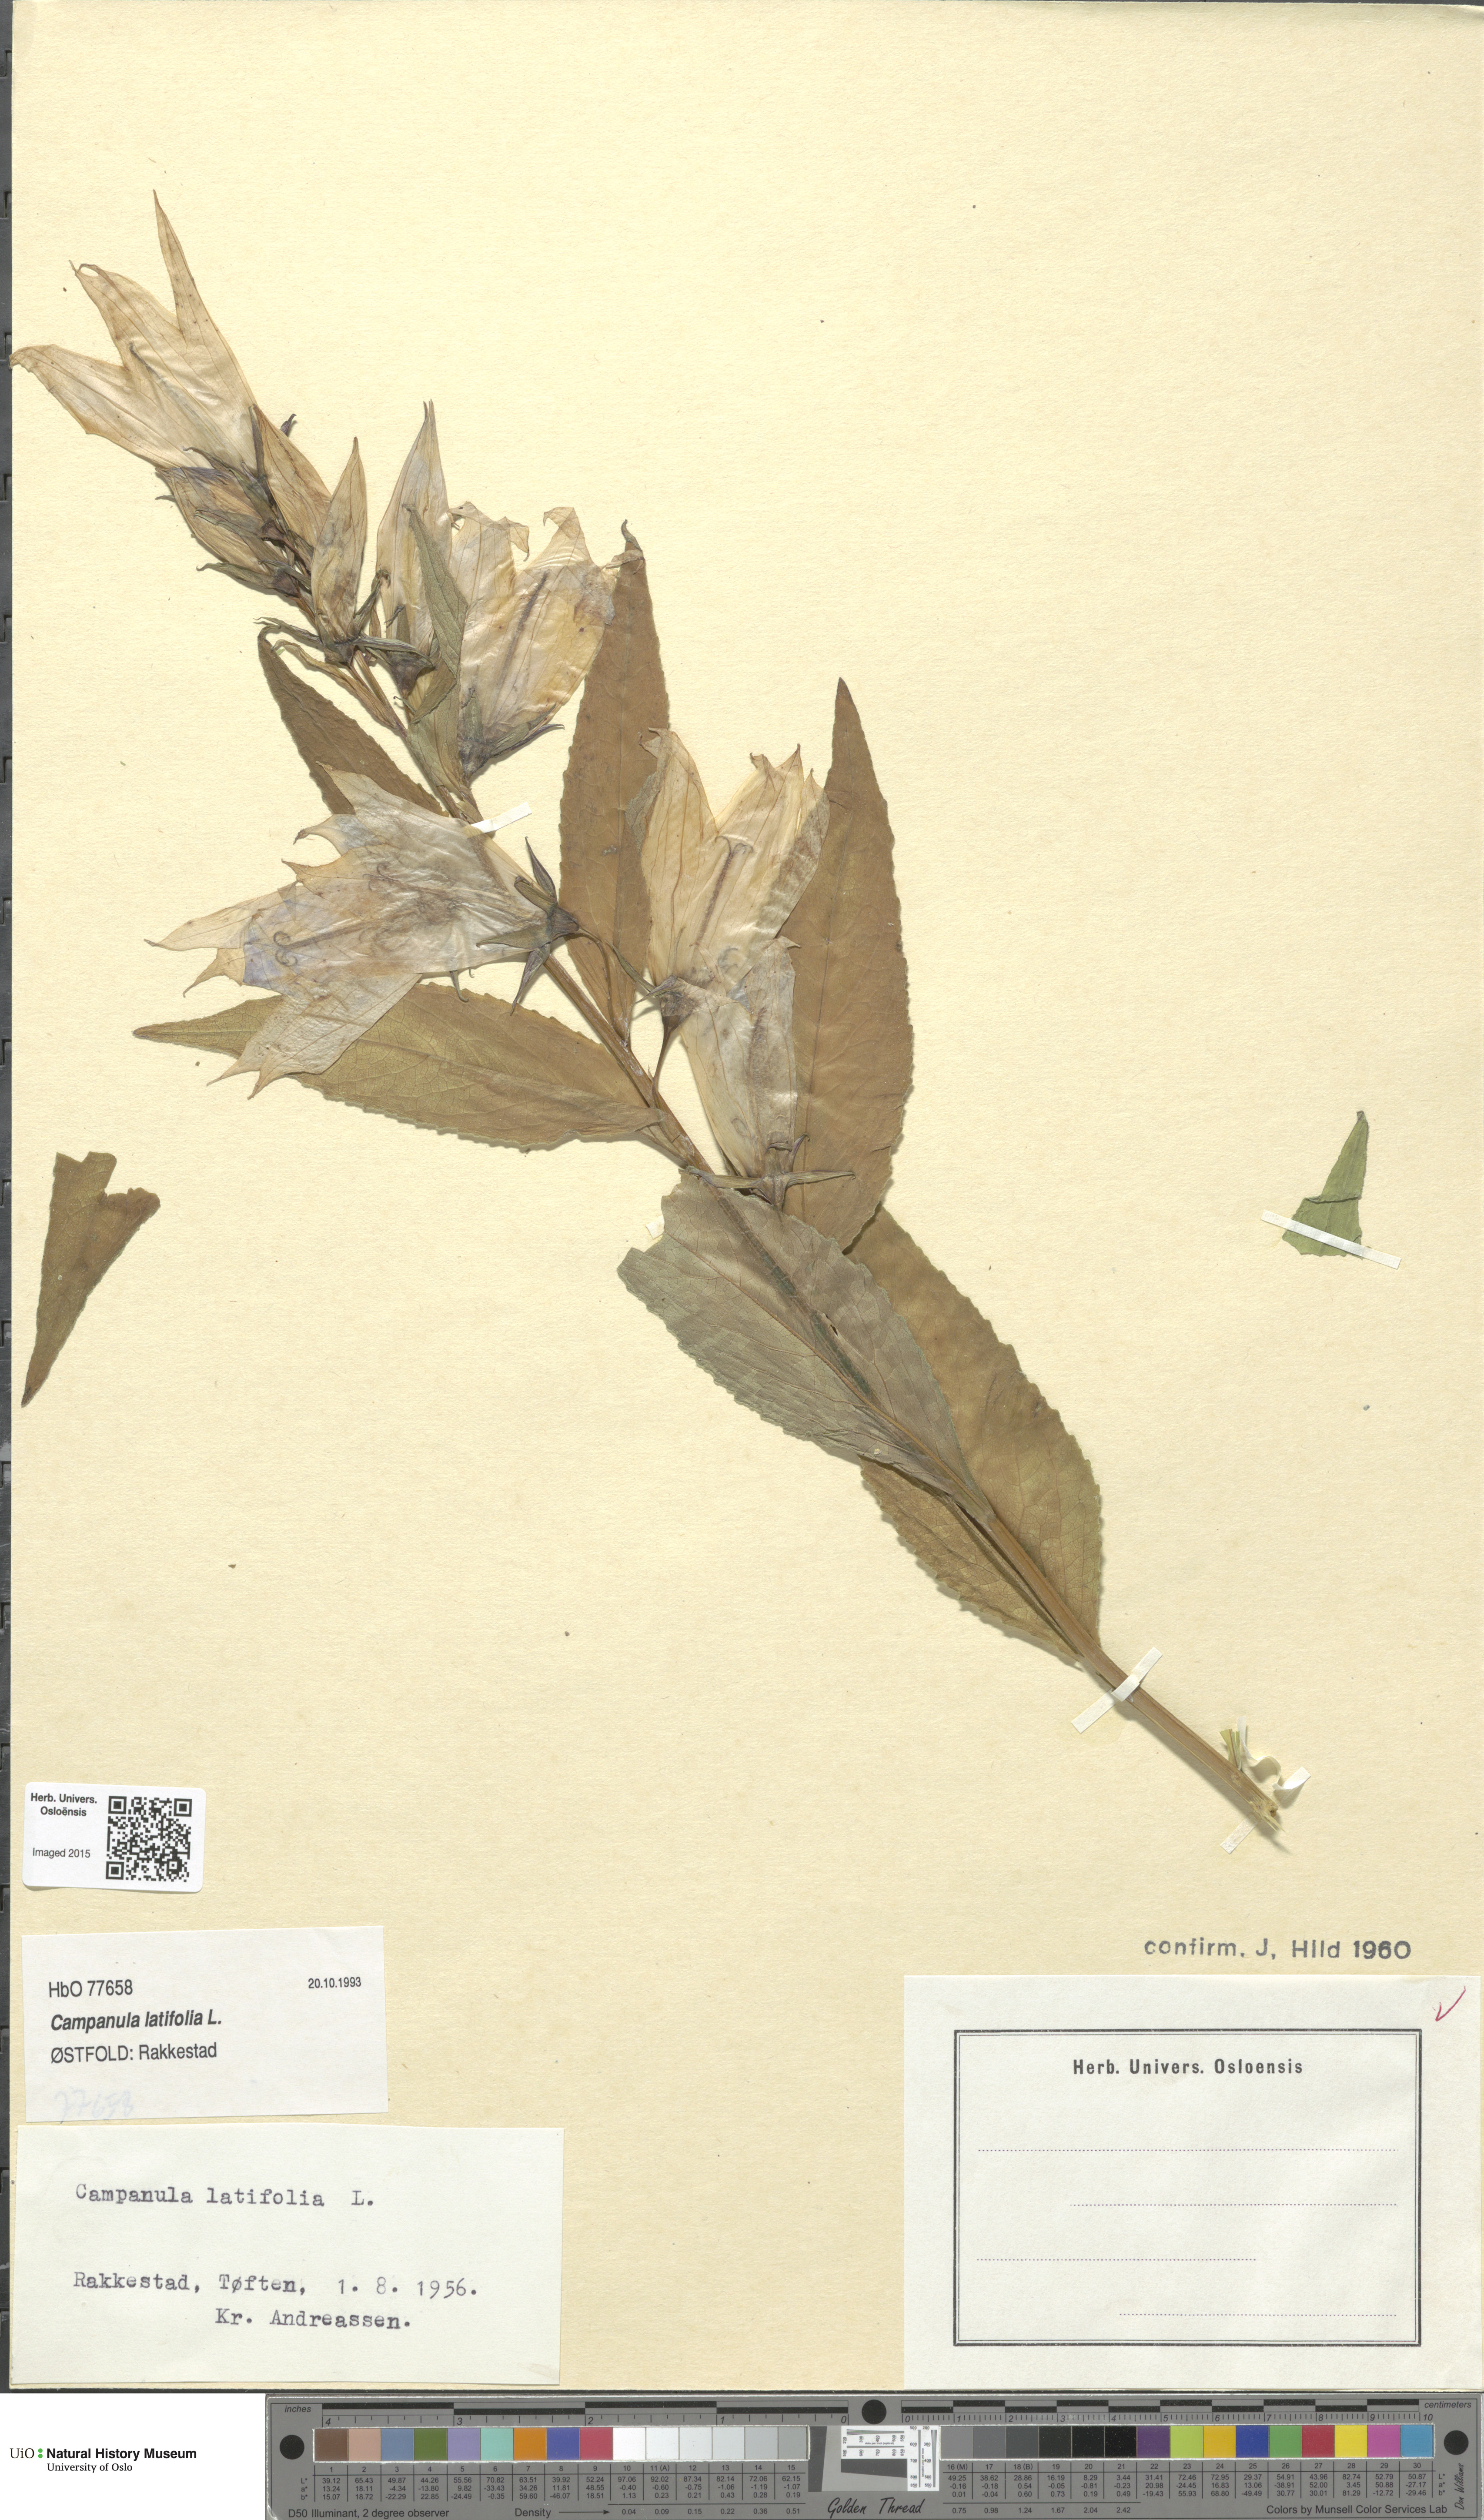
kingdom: Plantae
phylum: Tracheophyta
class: Magnoliopsida
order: Asterales
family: Campanulaceae
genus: Campanula
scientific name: Campanula latifolia
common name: Giant bellflower
